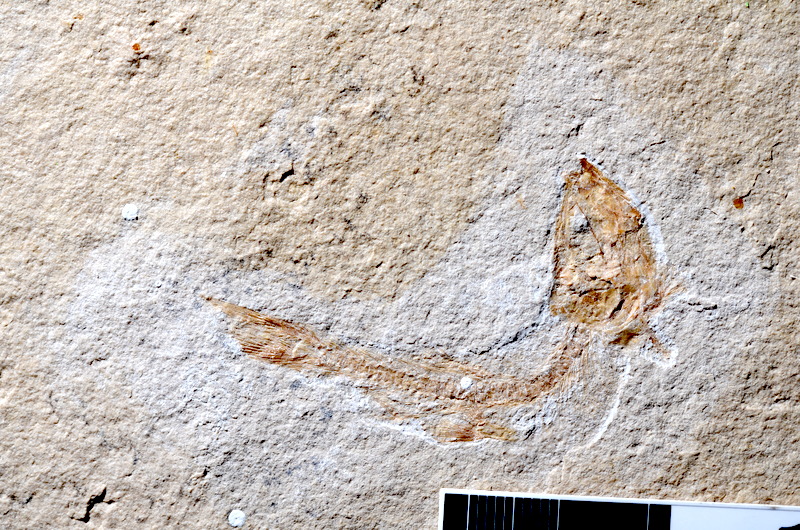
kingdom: Animalia
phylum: Chordata
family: Ascalaboidae
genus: Tharsis
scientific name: Tharsis dubius
